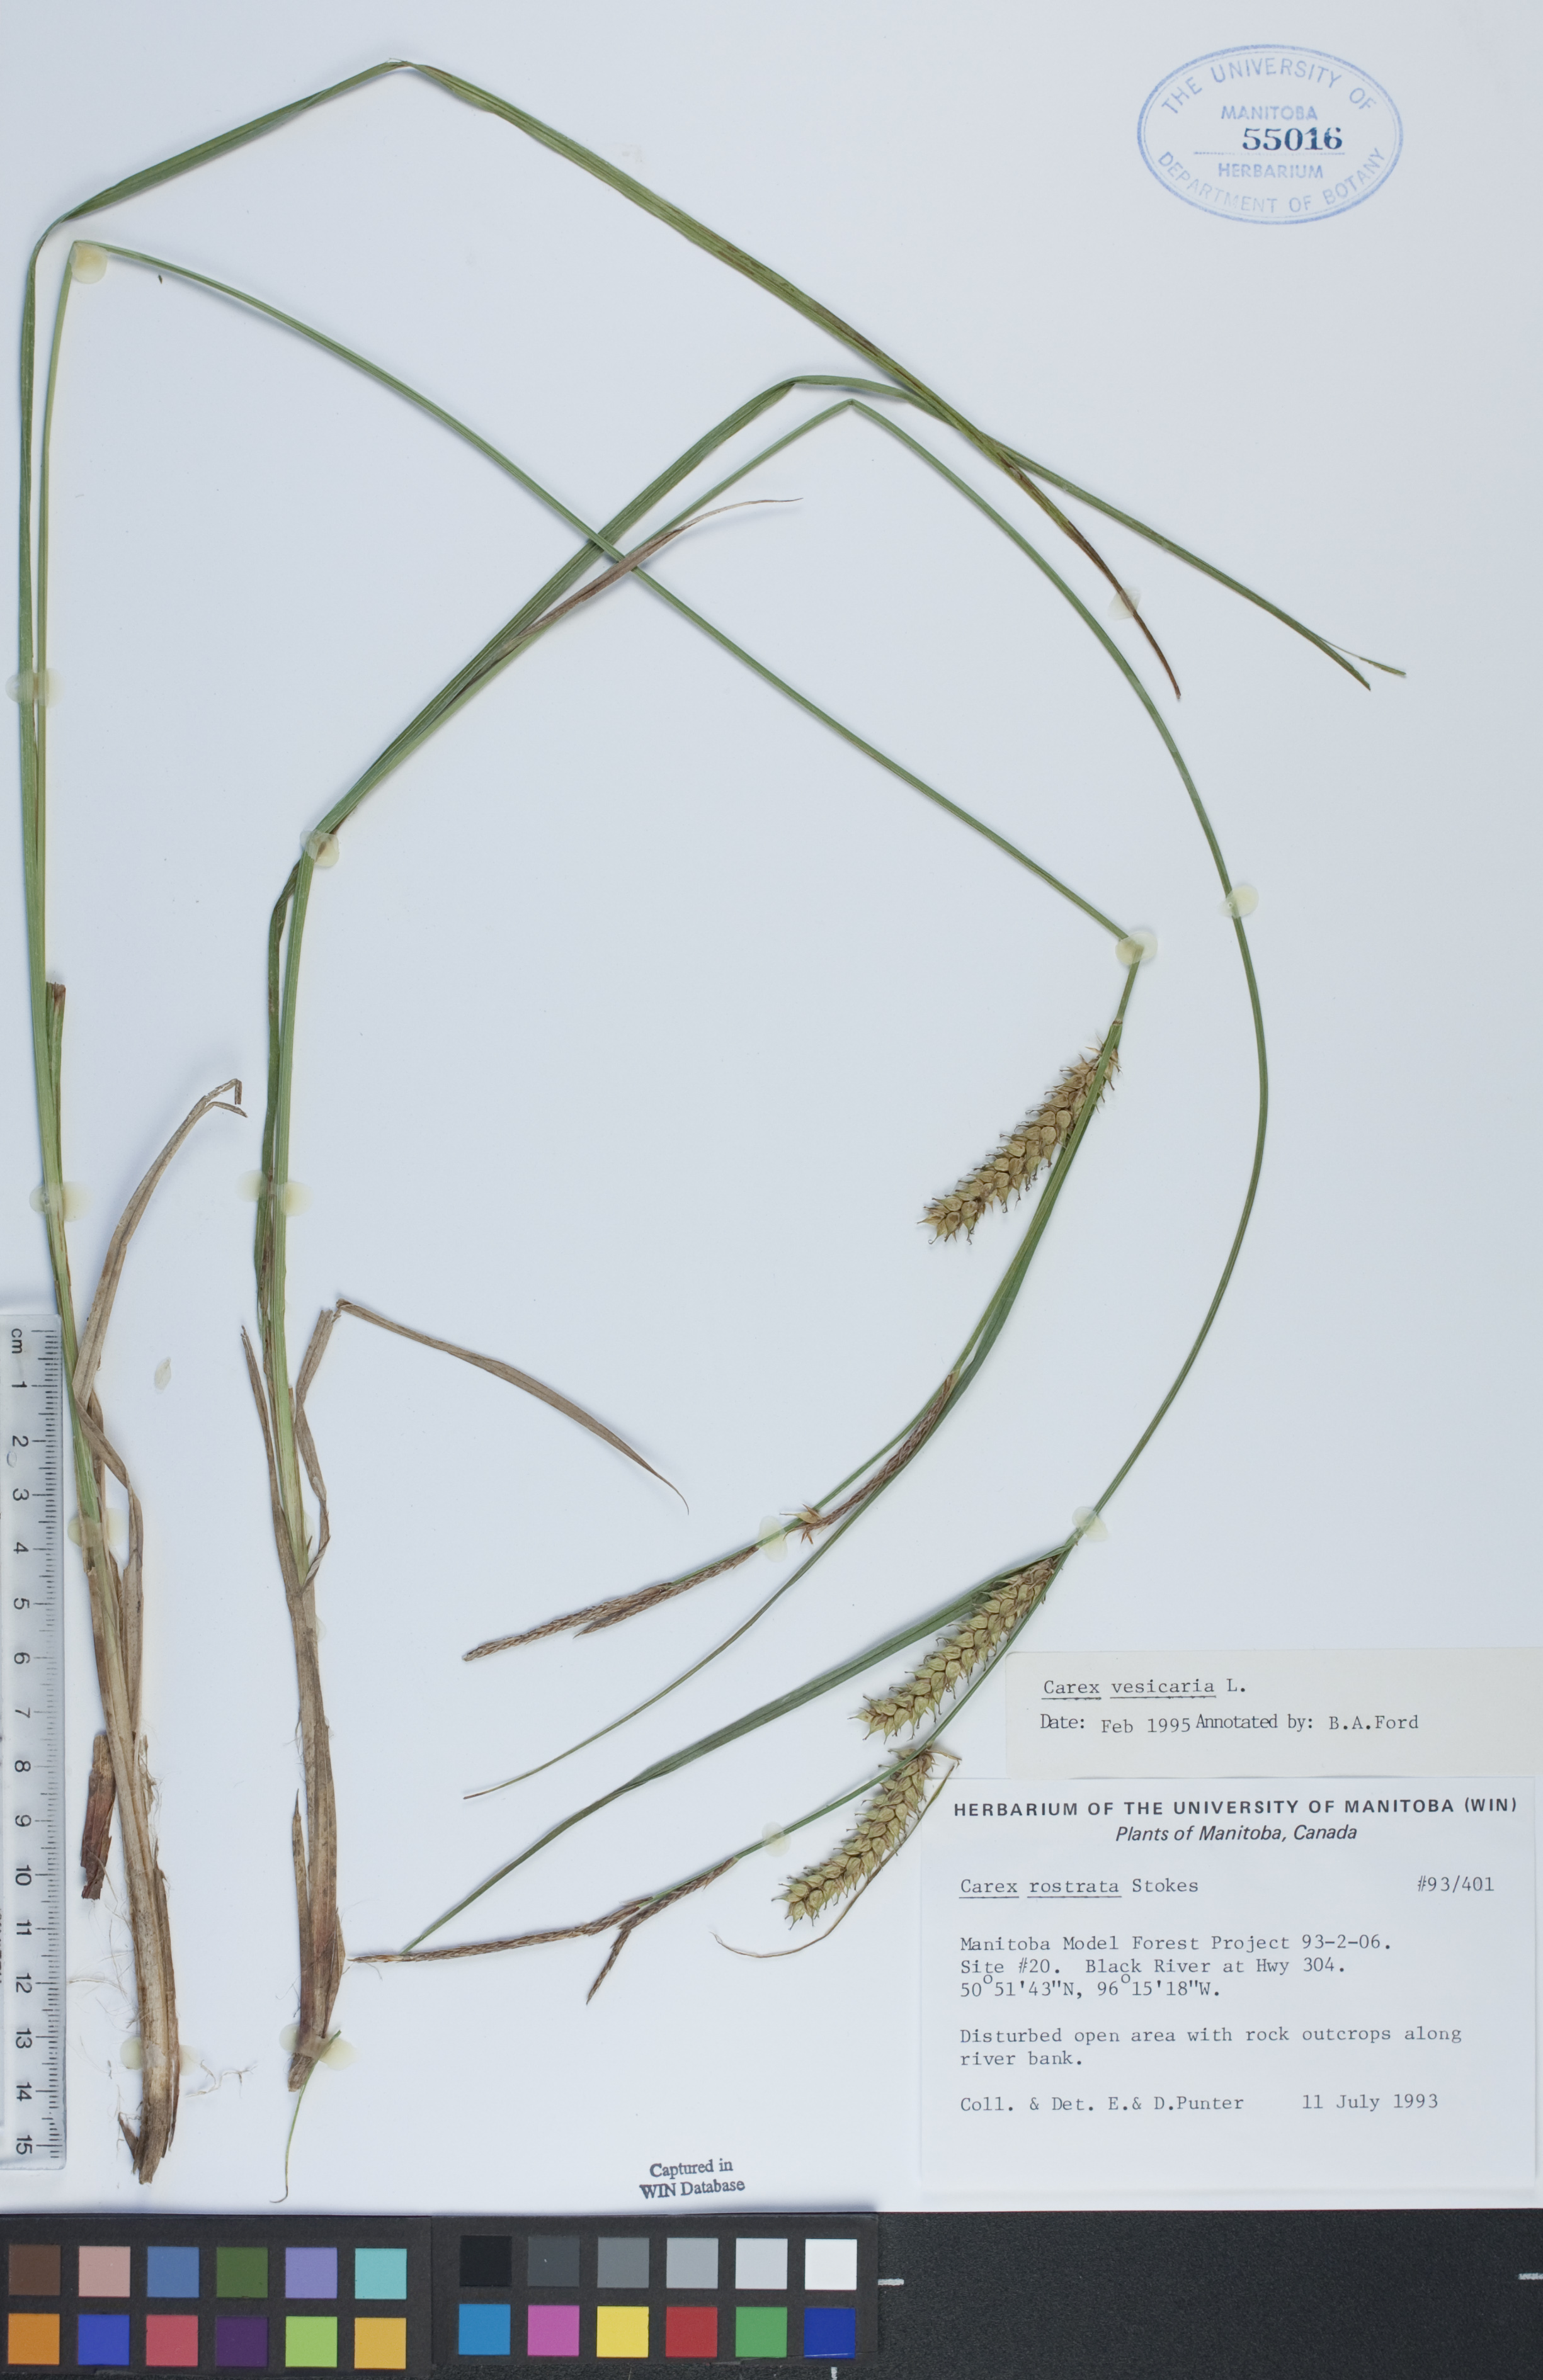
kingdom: Plantae
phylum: Tracheophyta
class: Liliopsida
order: Poales
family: Cyperaceae
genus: Carex
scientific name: Carex vesicaria
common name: Bladder-sedge
